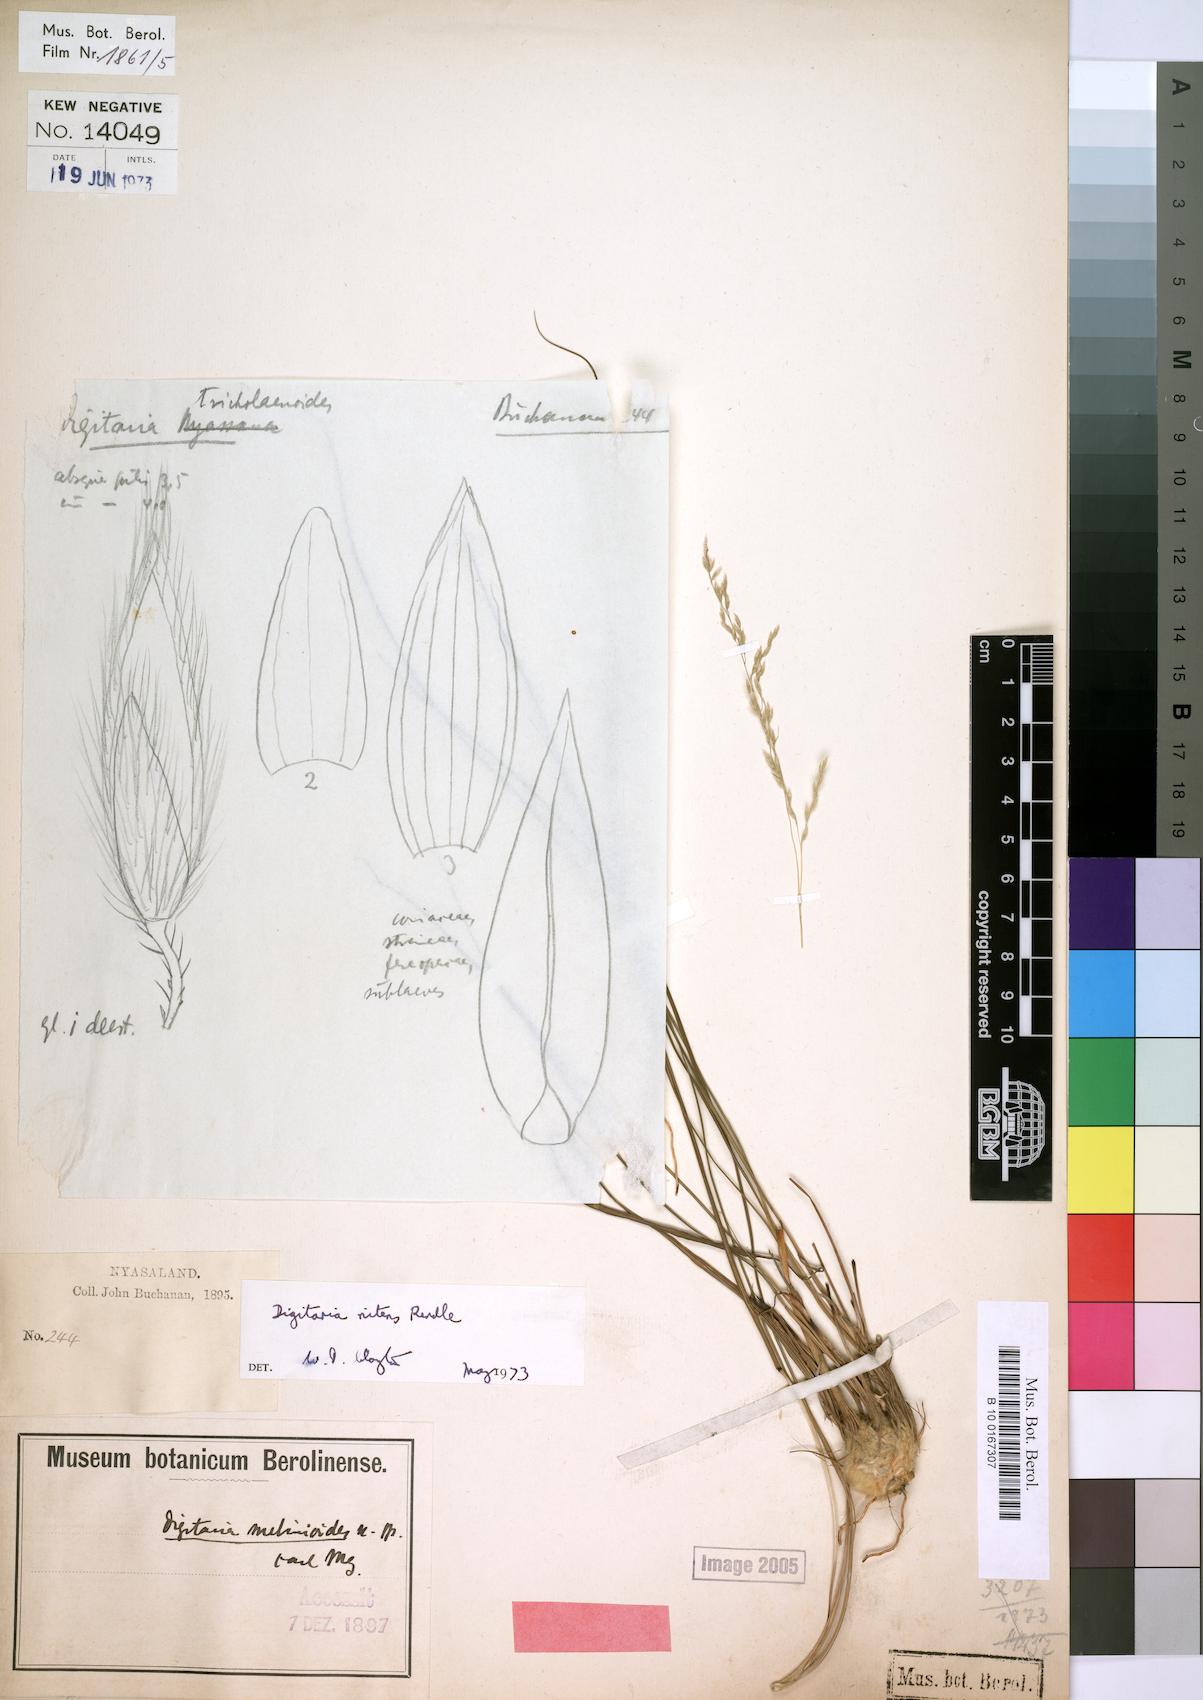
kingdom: Plantae
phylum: Tracheophyta
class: Liliopsida
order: Poales
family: Poaceae
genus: Digitaria
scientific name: Digitaria flaccida
